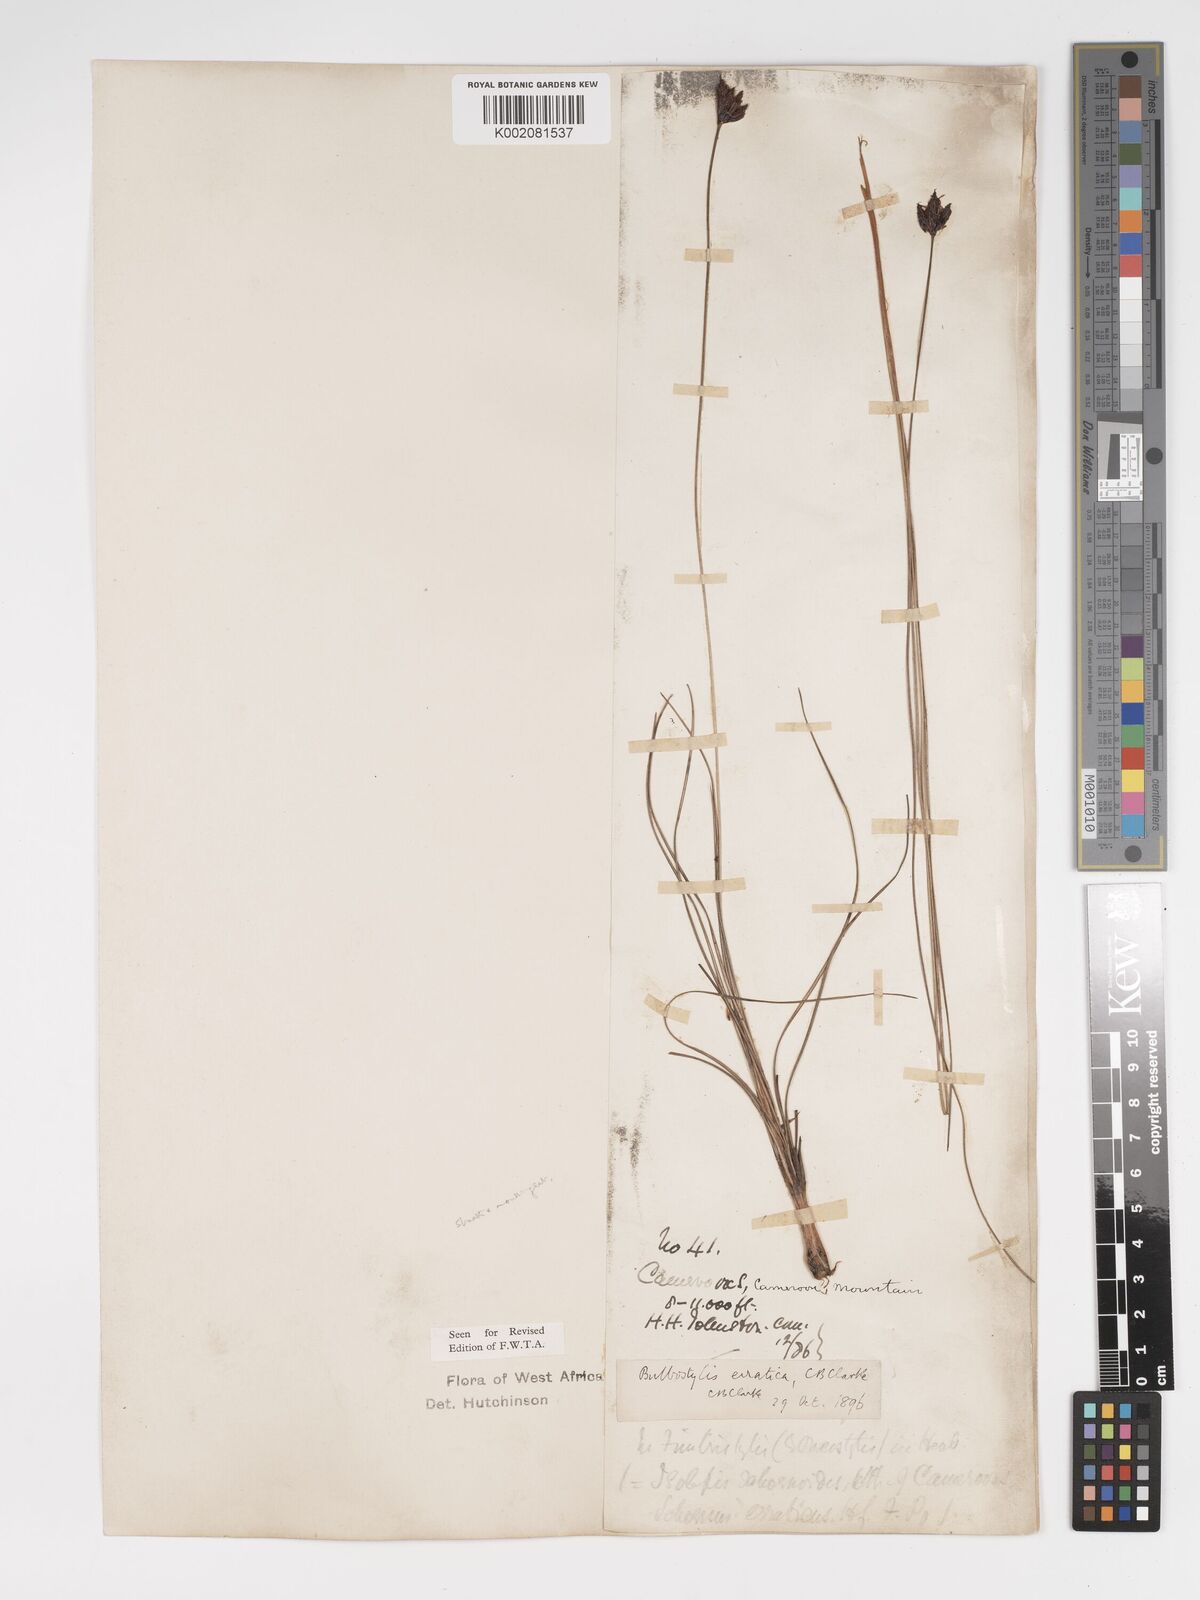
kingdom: Plantae
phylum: Tracheophyta
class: Liliopsida
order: Poales
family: Cyperaceae
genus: Bulbostylis
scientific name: Bulbostylis schoenoides
